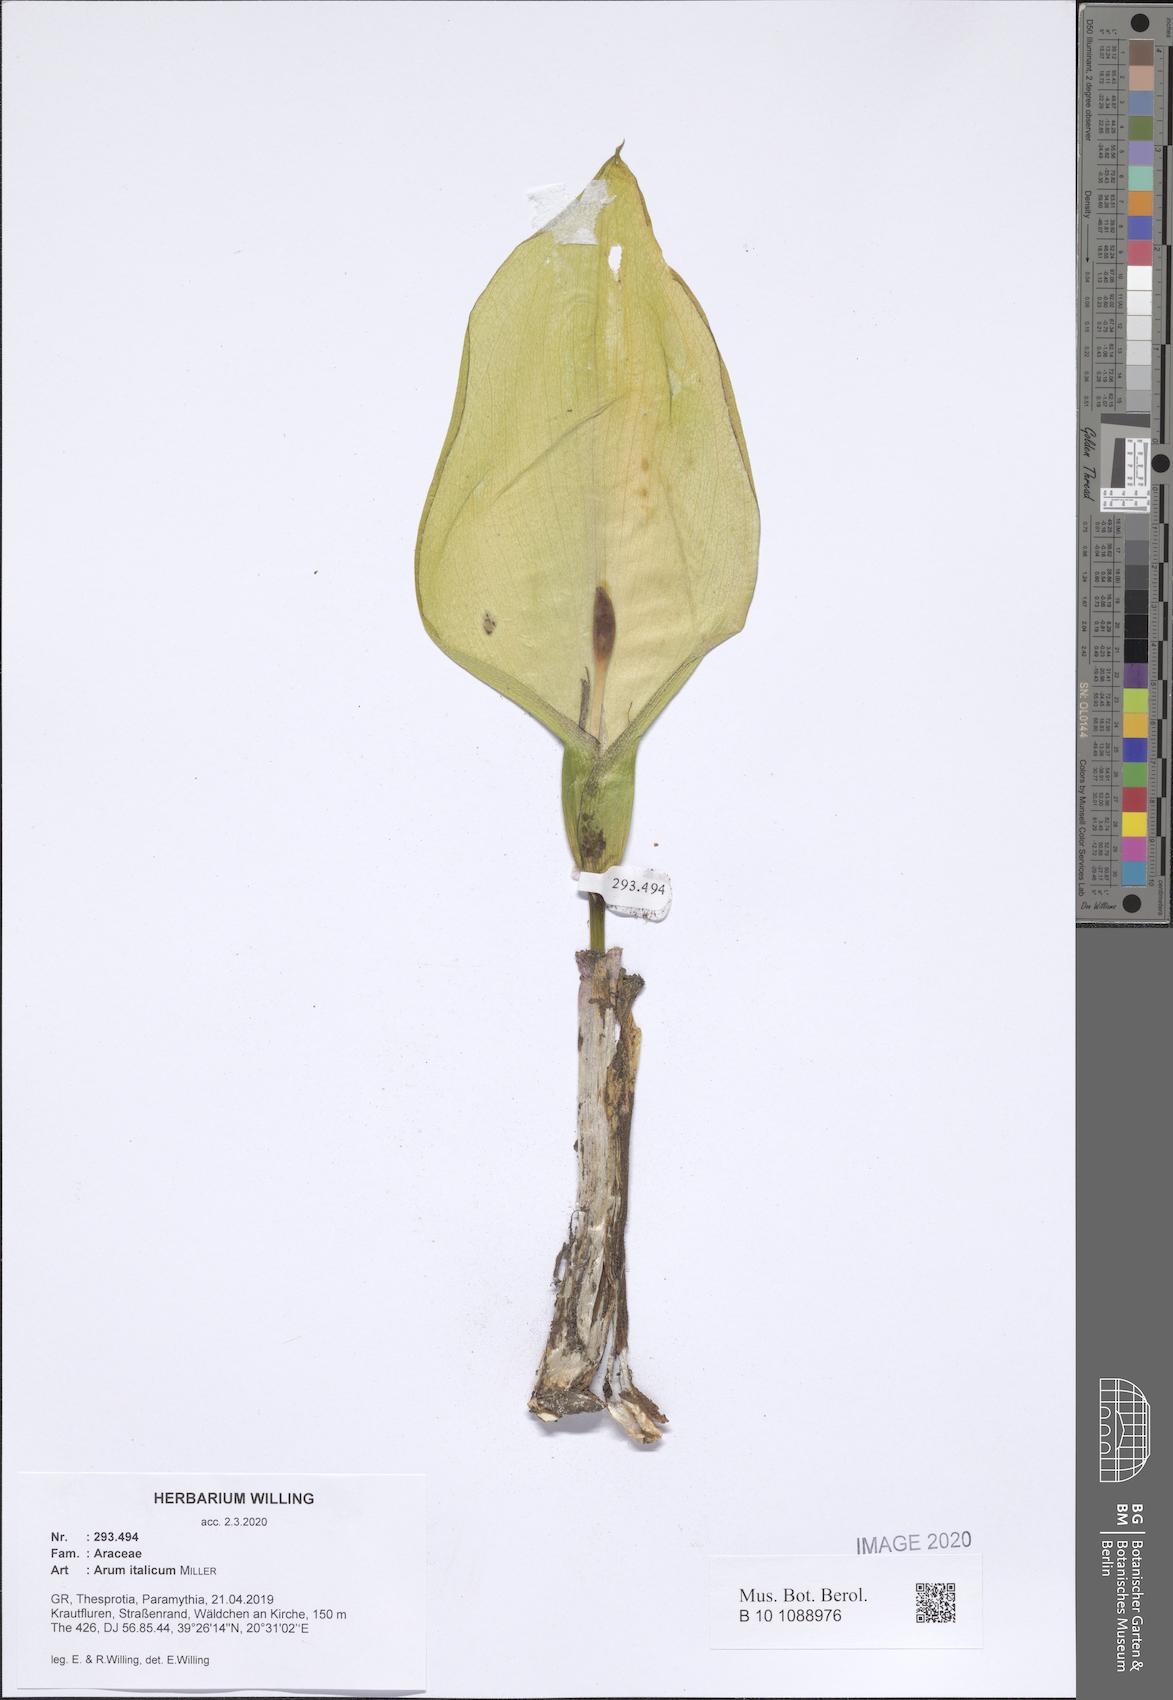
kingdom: Plantae
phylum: Tracheophyta
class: Liliopsida
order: Alismatales
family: Araceae
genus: Arum
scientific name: Arum italicum
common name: Italian lords-and-ladies
